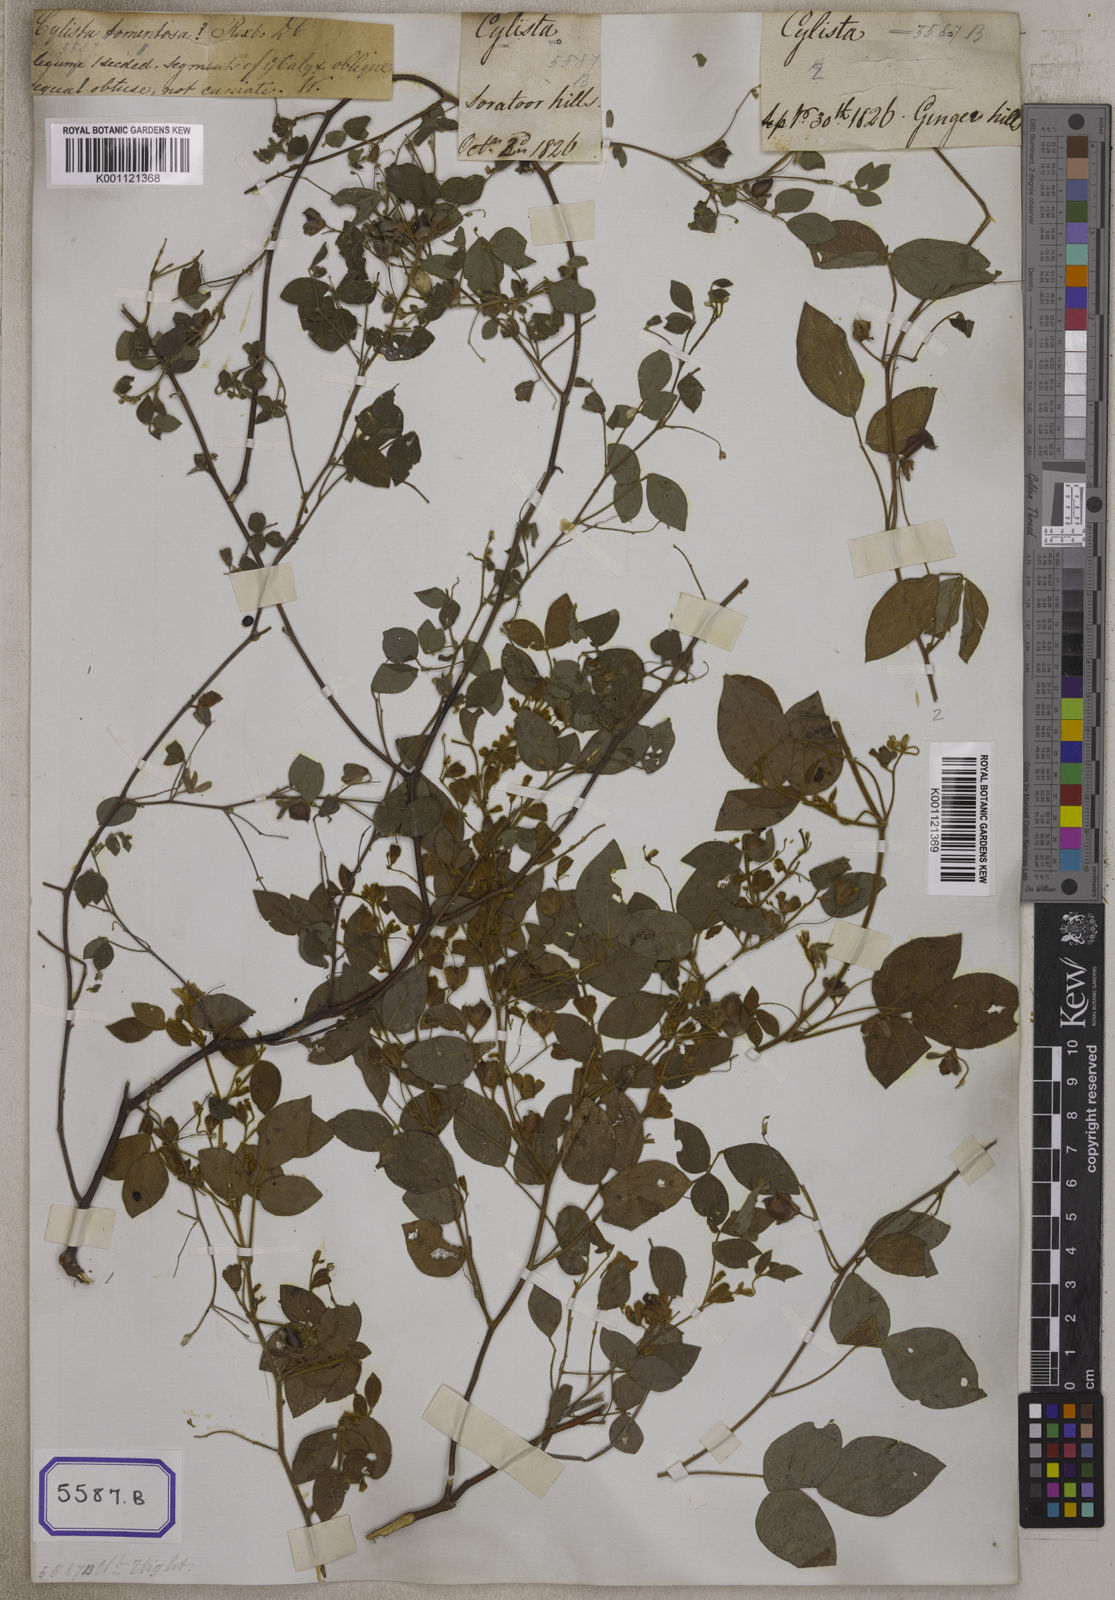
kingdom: Plantae
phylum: Tracheophyta
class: Magnoliopsida
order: Fabales
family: Fabaceae
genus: Rhynchosia
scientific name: Rhynchosia rufescens
